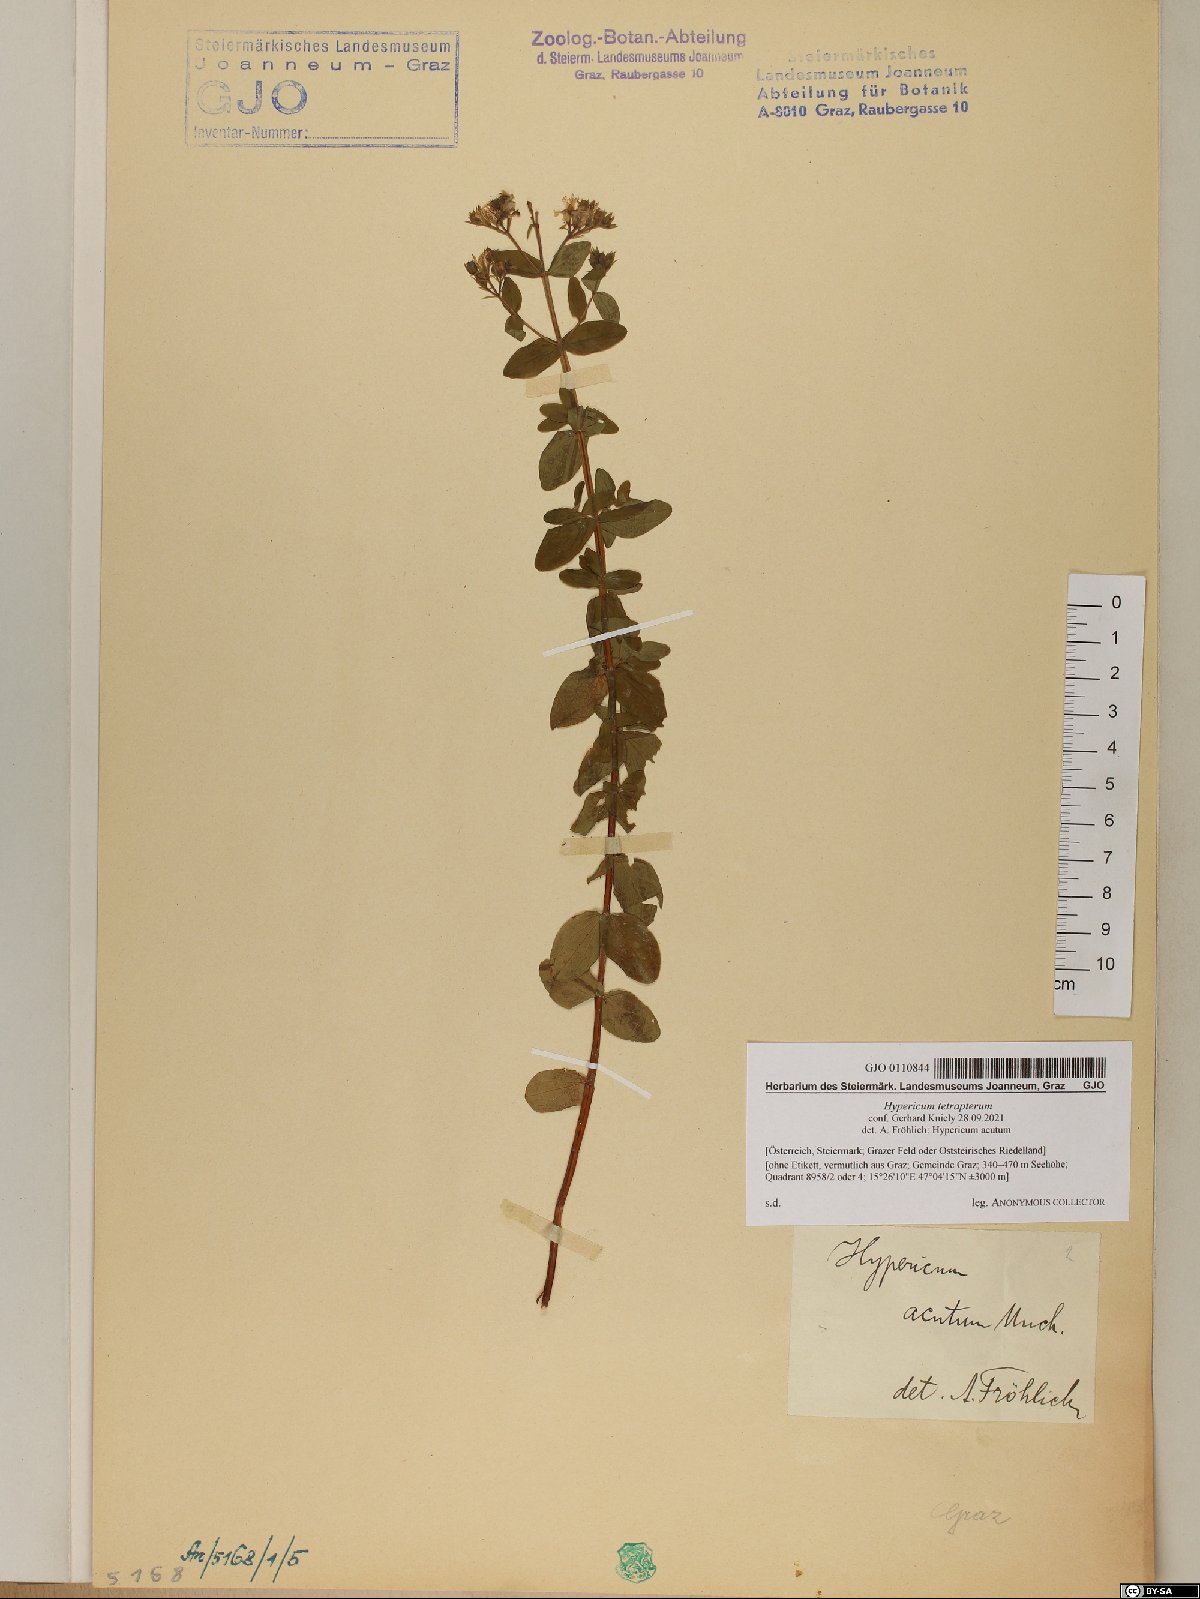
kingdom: Plantae
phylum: Tracheophyta
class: Magnoliopsida
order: Malpighiales
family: Hypericaceae
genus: Hypericum
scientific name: Hypericum tetrapterum
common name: Square-stalked st. john's-wort
